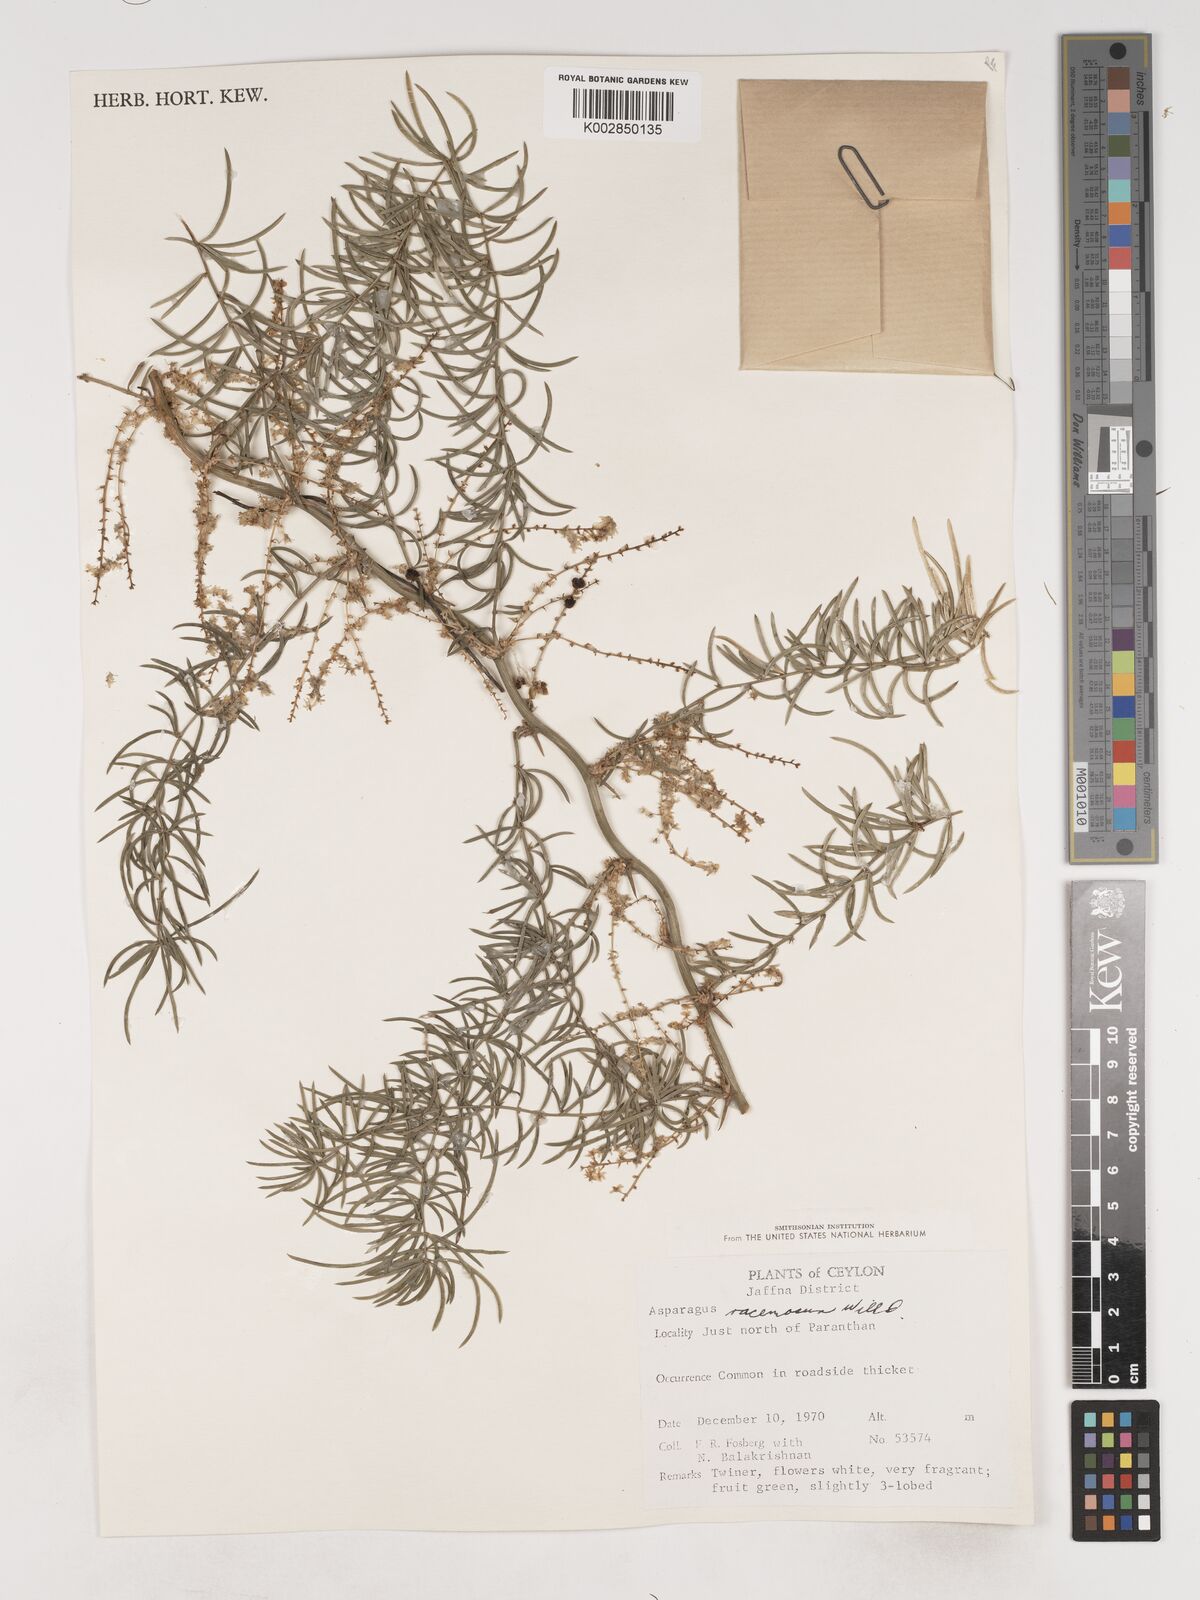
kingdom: Plantae
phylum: Tracheophyta
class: Liliopsida
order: Asparagales
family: Asparagaceae
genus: Asparagus
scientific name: Asparagus racemosus
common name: Asparagus-fern
